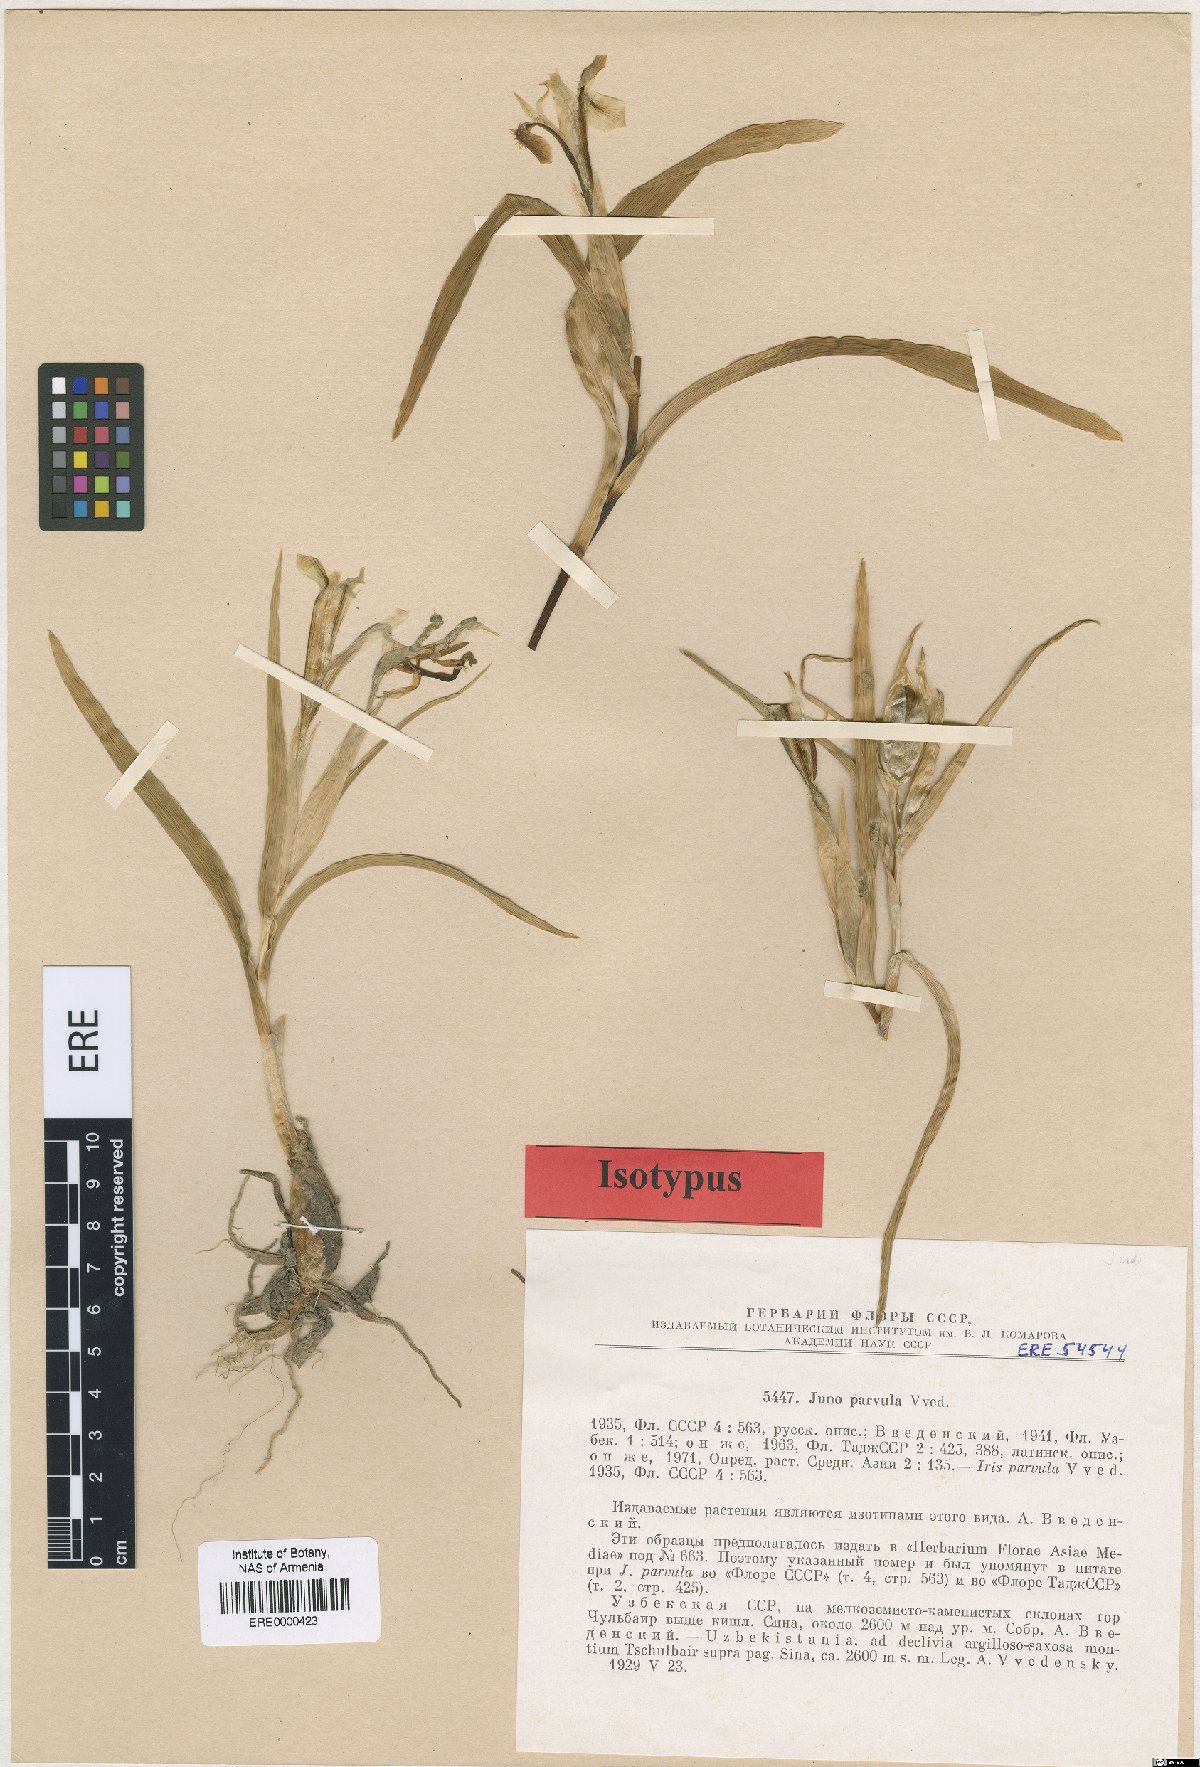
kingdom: Plantae
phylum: Tracheophyta
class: Liliopsida
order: Asparagales
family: Iridaceae
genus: Iris
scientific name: Iris parvula
